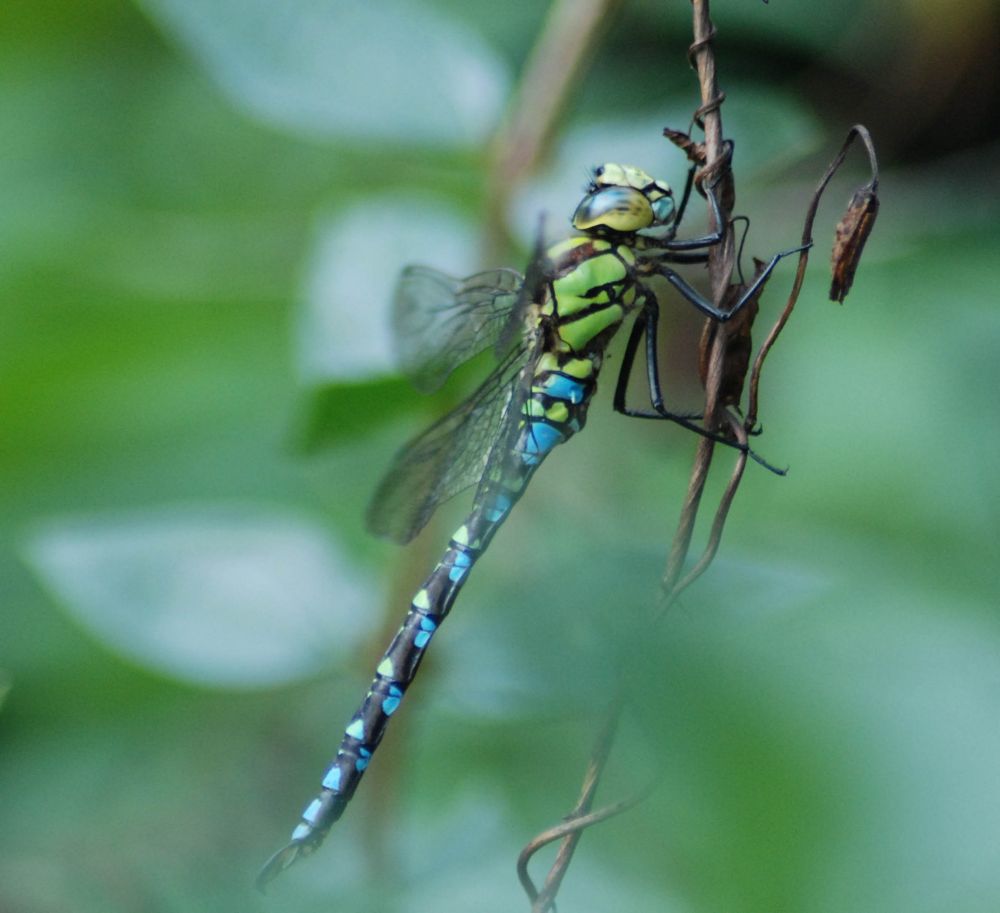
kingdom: Animalia
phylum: Arthropoda
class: Insecta
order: Odonata
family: Aeshnidae
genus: Aeshna
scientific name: Aeshna cyanea
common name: Southern hawker
